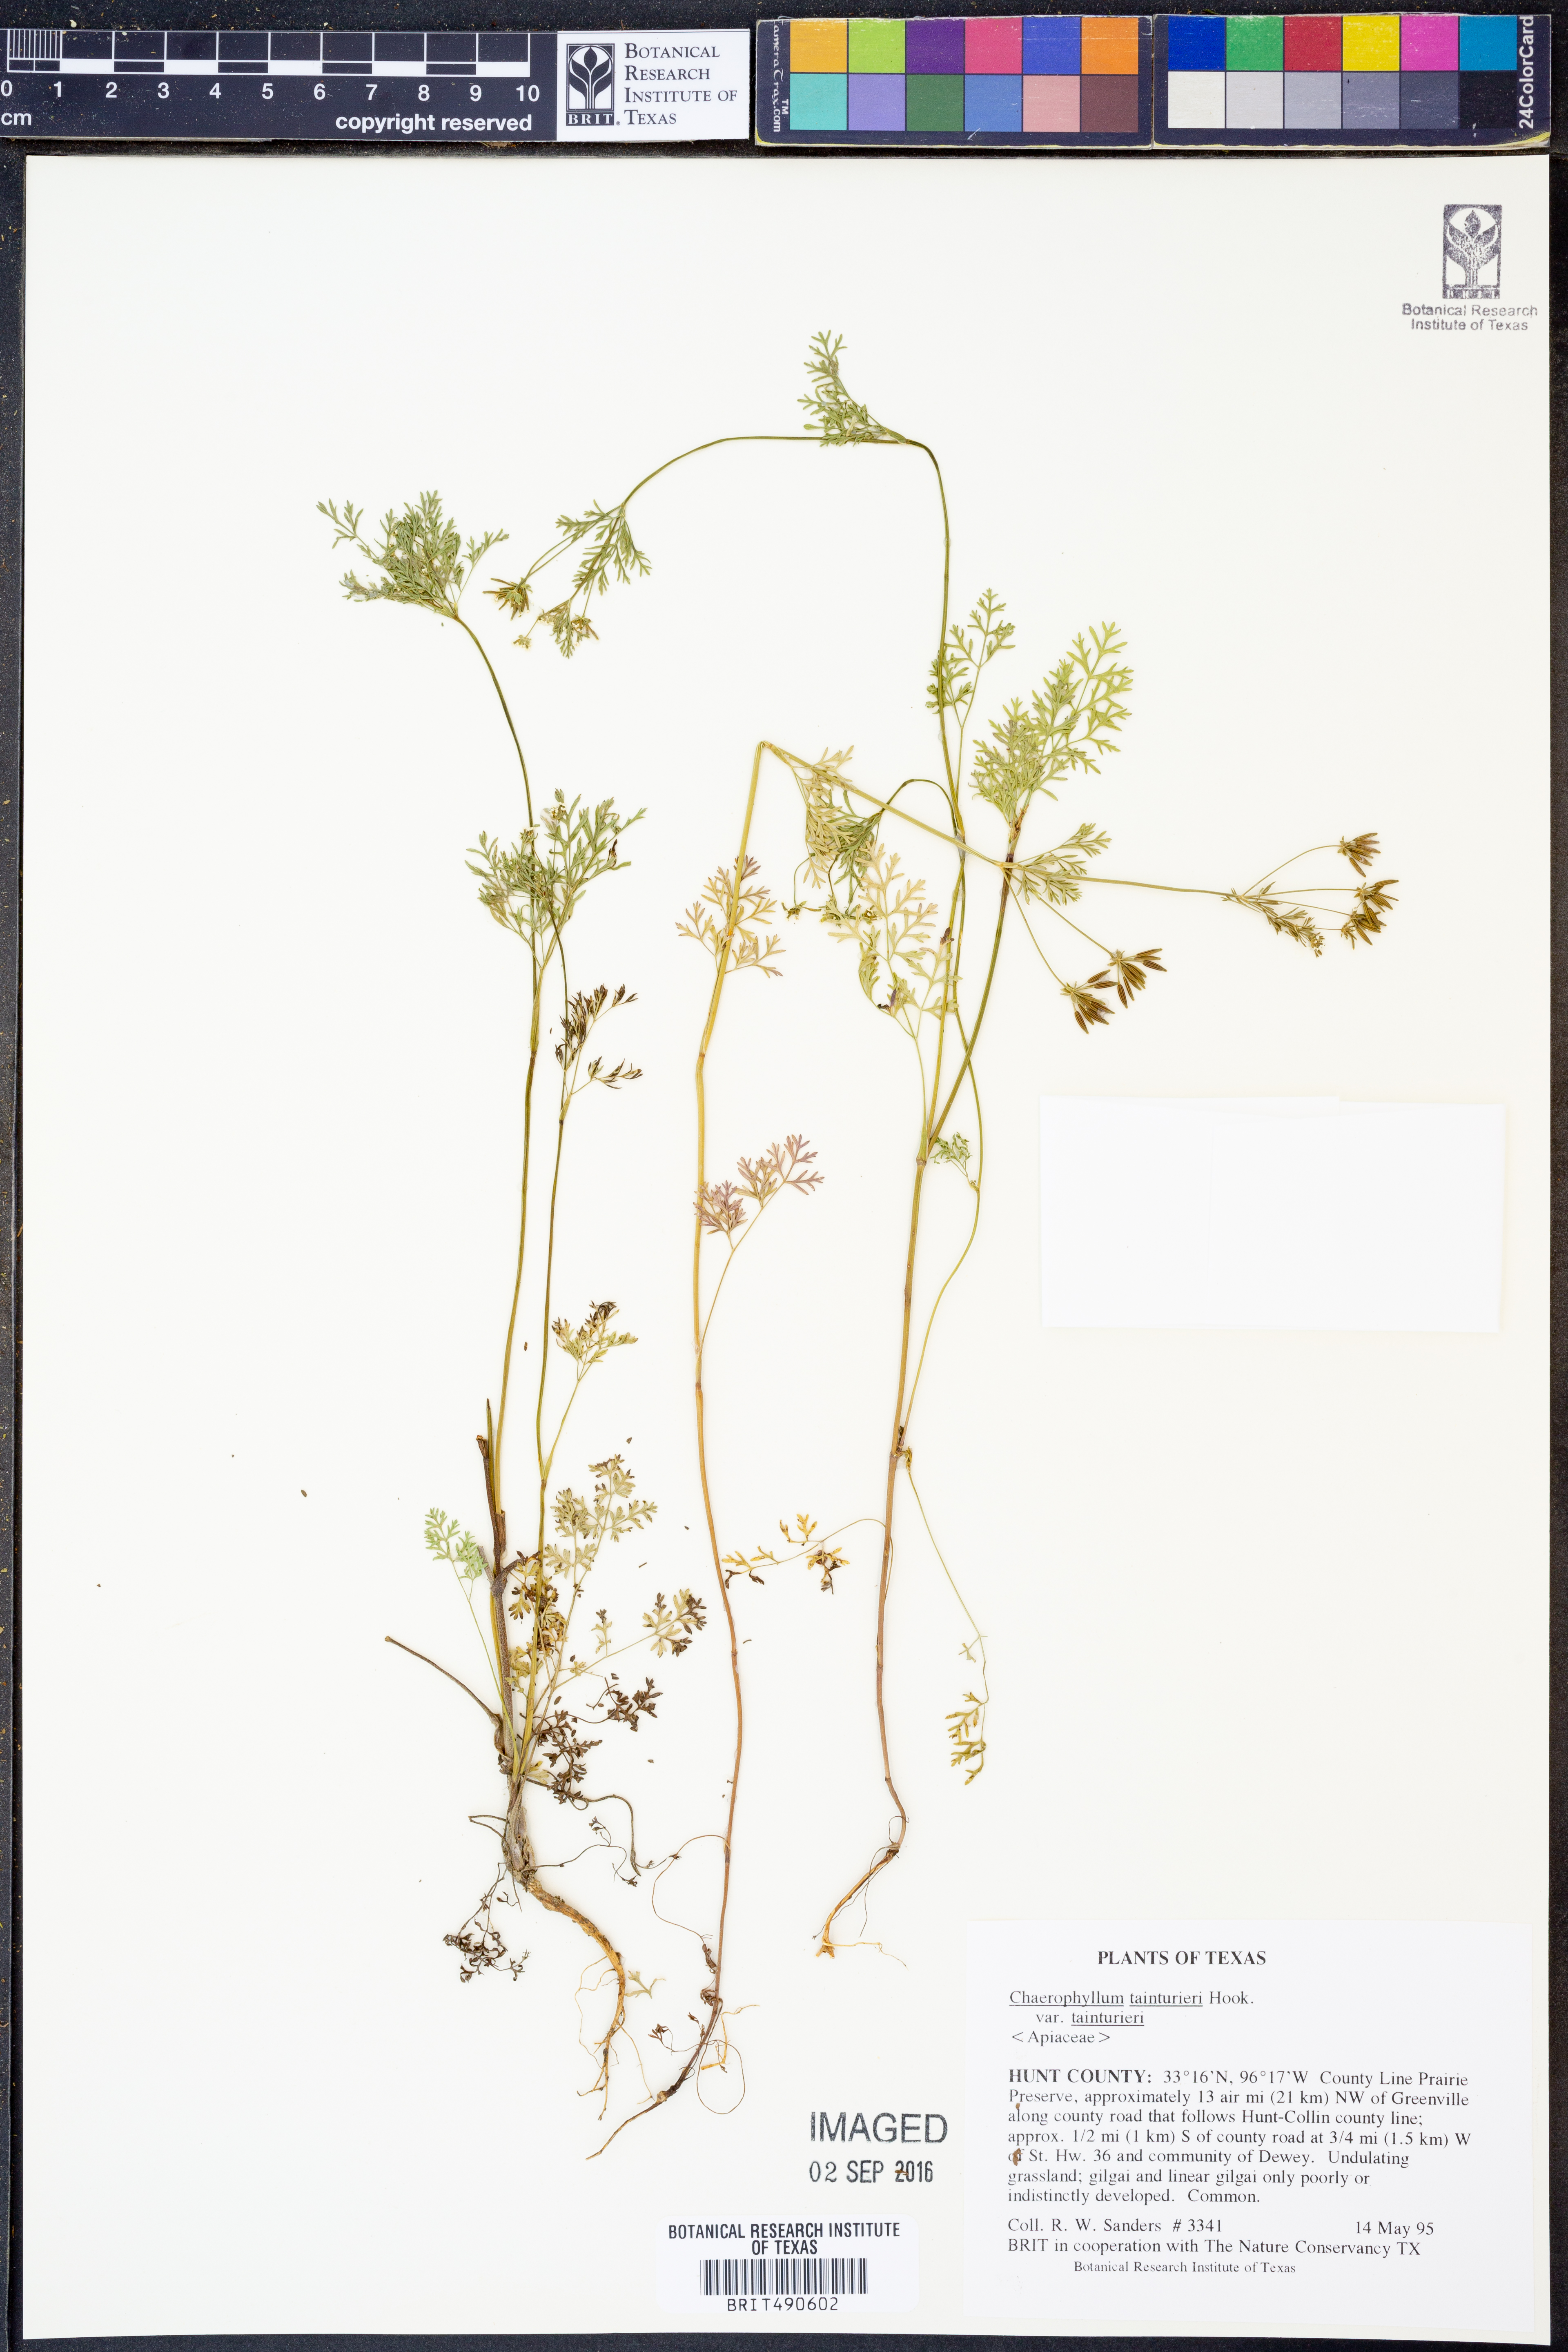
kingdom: Plantae
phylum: Tracheophyta
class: Magnoliopsida
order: Apiales
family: Apiaceae
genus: Chaerophyllum
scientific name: Chaerophyllum tainturieri
